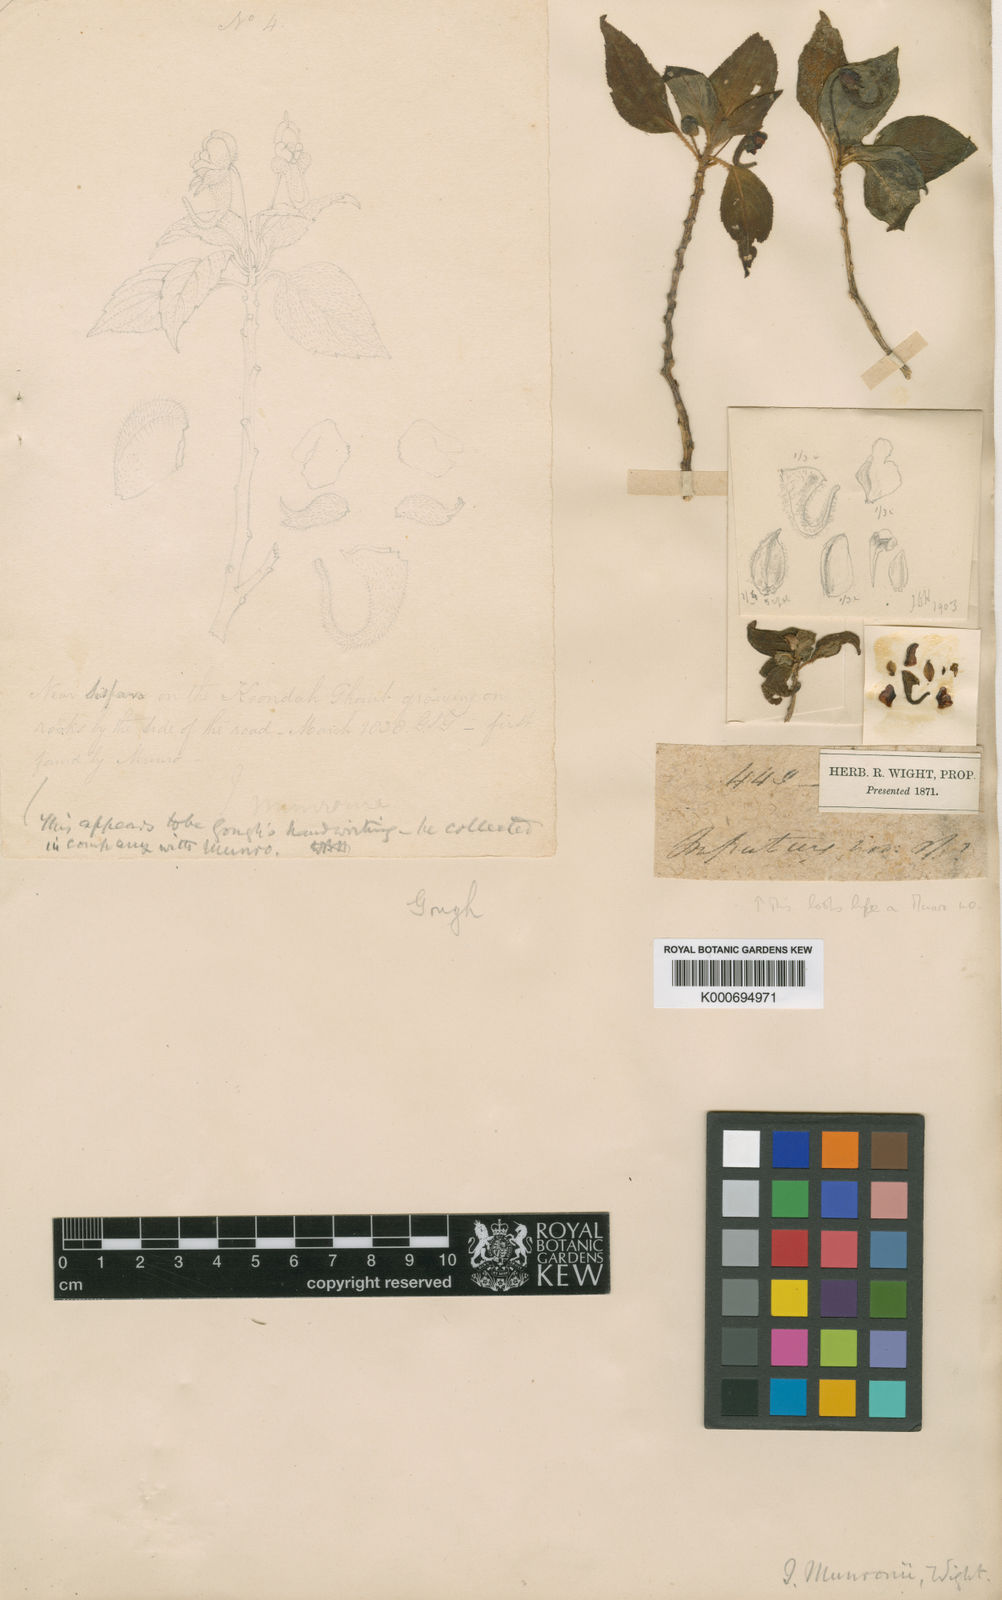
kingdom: Plantae
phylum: Tracheophyta
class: Magnoliopsida
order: Ericales
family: Balsaminaceae
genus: Impatiens
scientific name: Impatiens munronii
